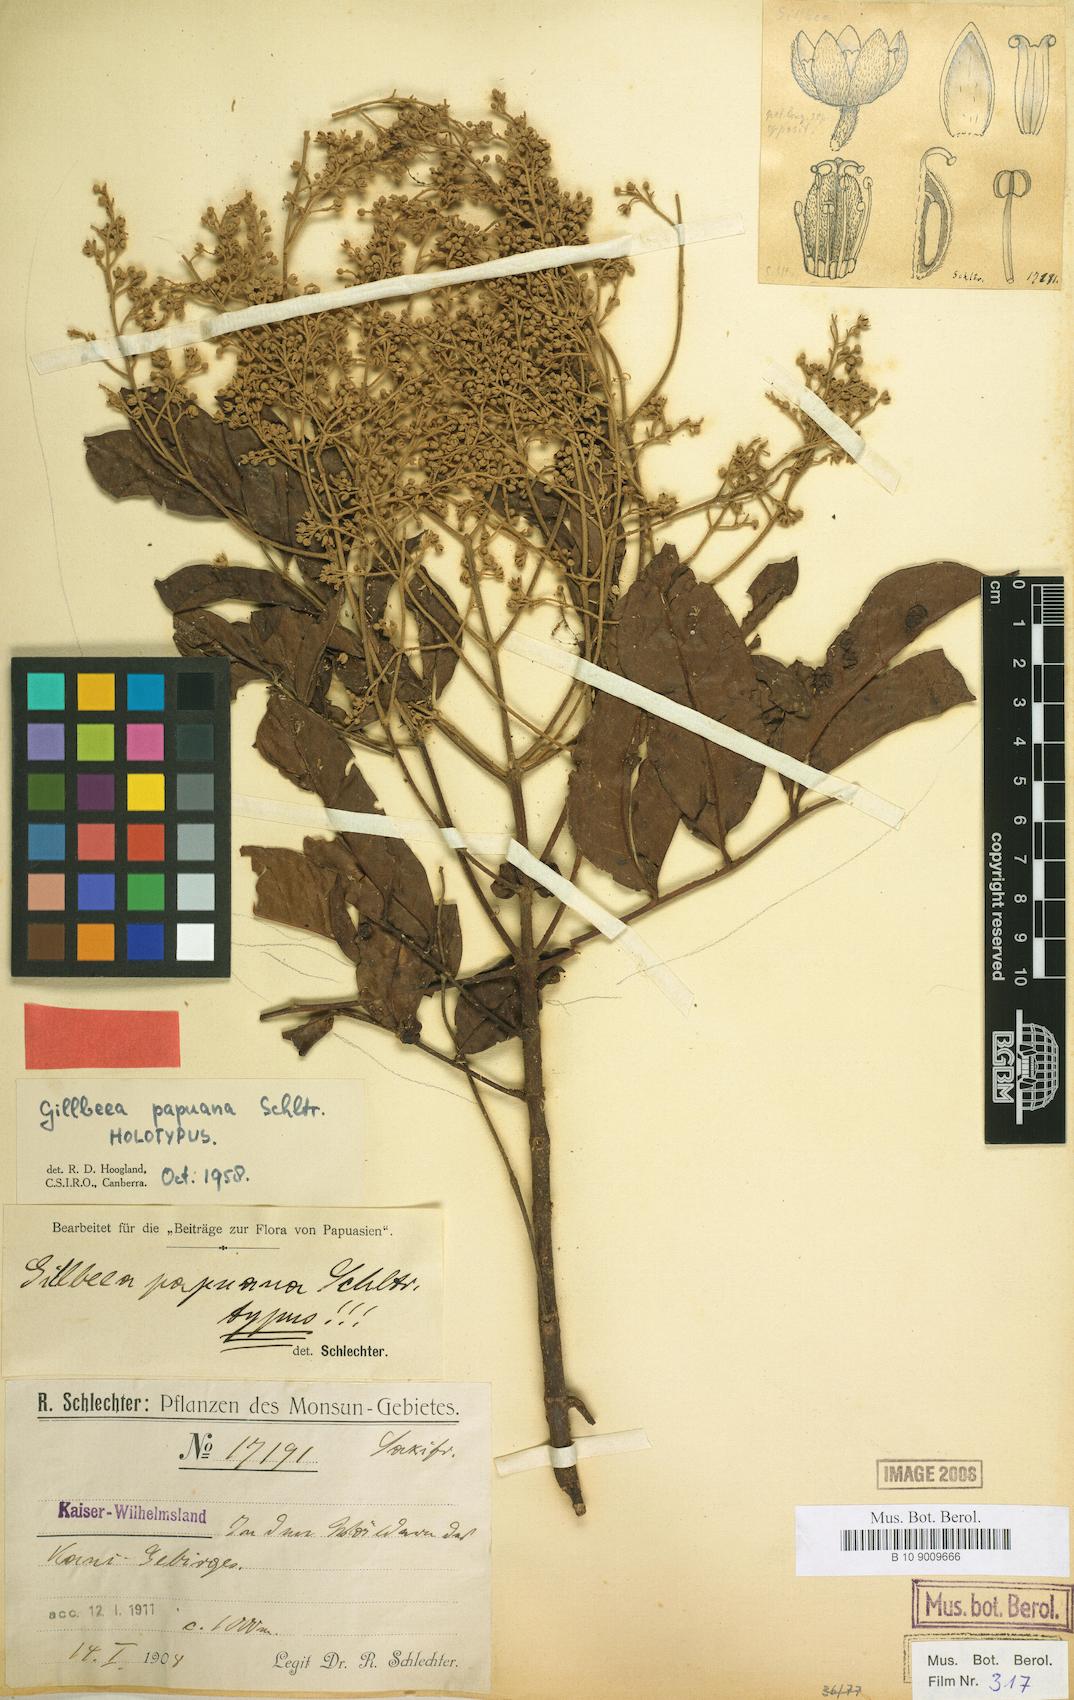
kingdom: Plantae
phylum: Tracheophyta
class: Magnoliopsida
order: Oxalidales
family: Cunoniaceae
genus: Gillbeea
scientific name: Gillbeea papuana
